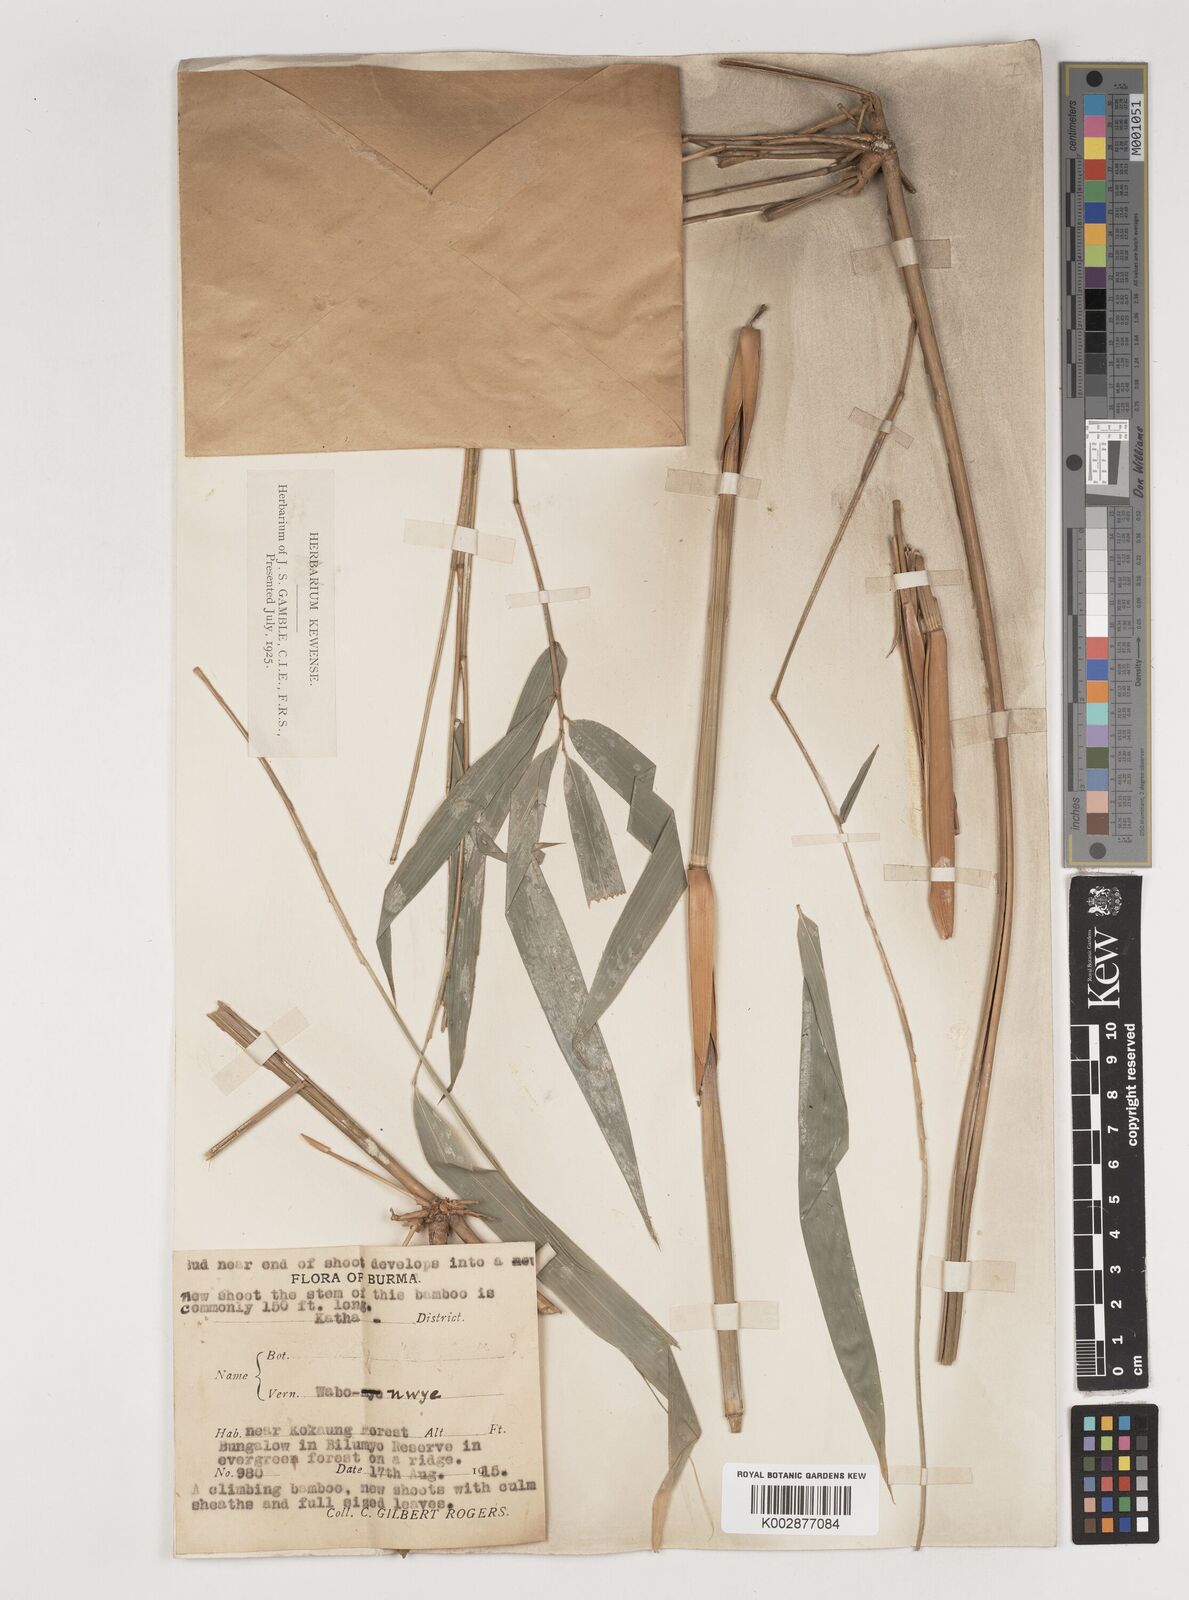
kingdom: Plantae
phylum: Tracheophyta
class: Liliopsida
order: Poales
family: Poaceae
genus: Bambusa
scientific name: Bambusa
